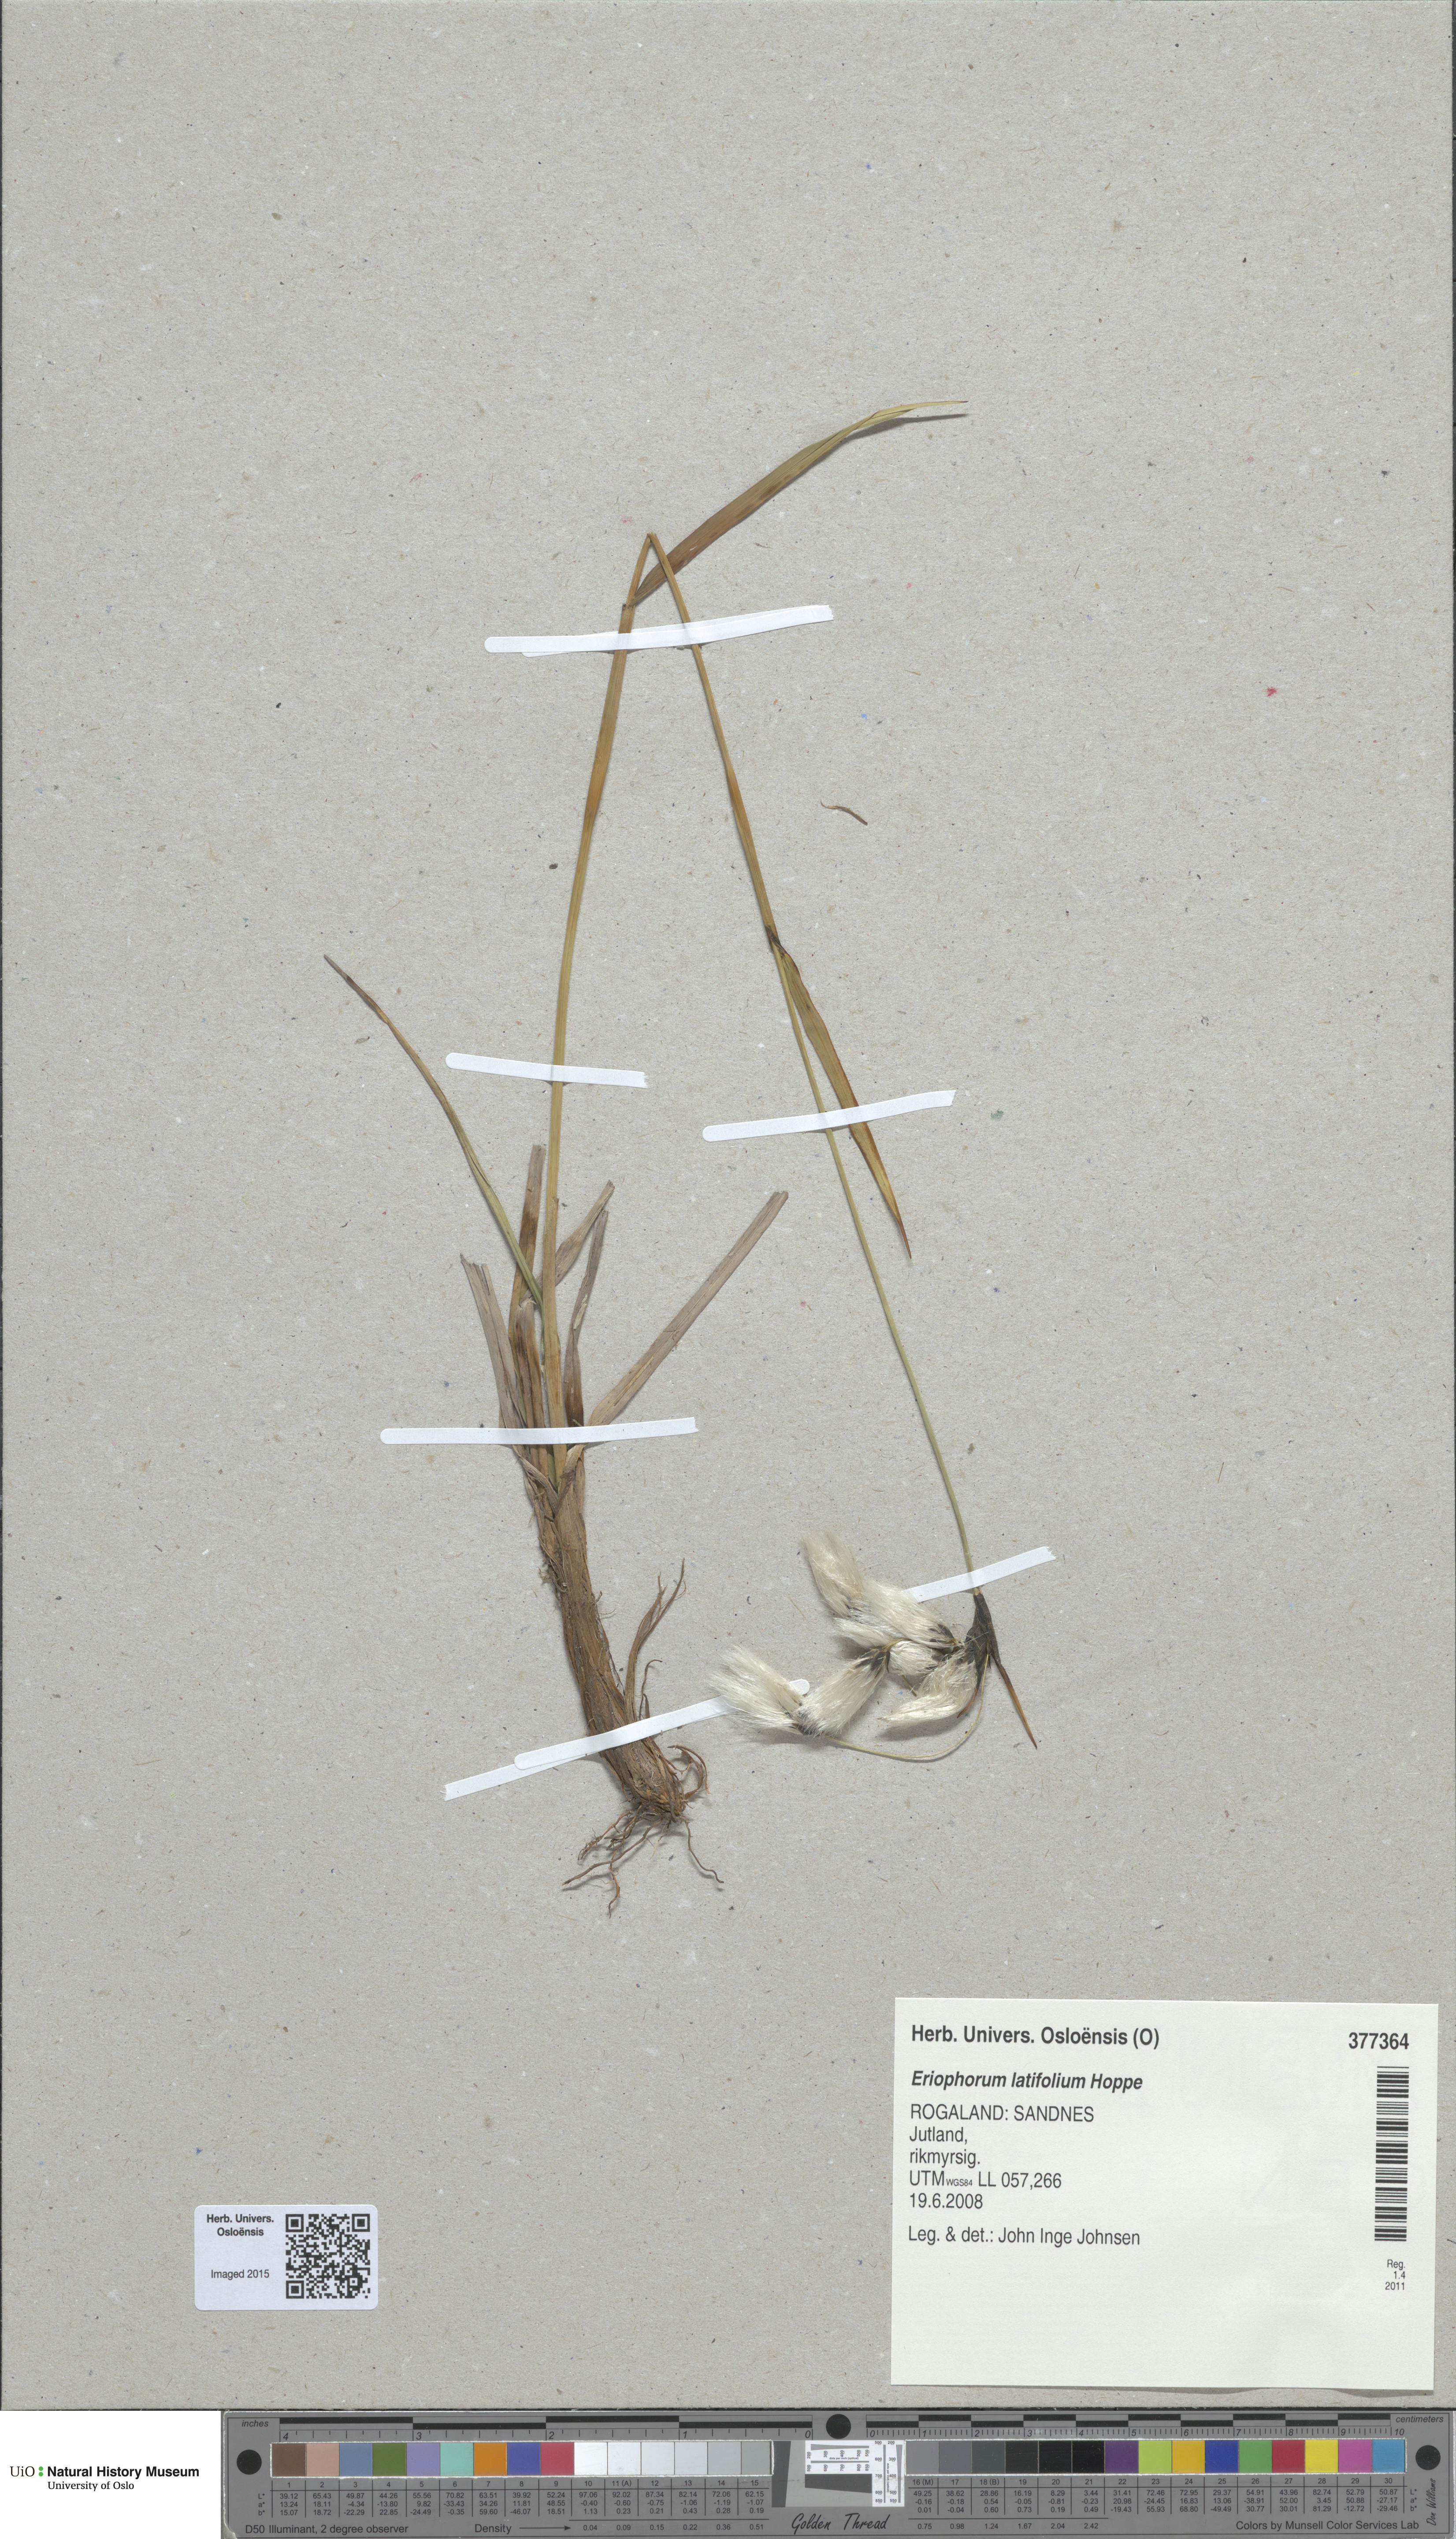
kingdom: Plantae
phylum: Tracheophyta
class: Liliopsida
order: Poales
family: Cyperaceae
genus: Eriophorum
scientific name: Eriophorum latifolium
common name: Broad-leaved cottongrass
